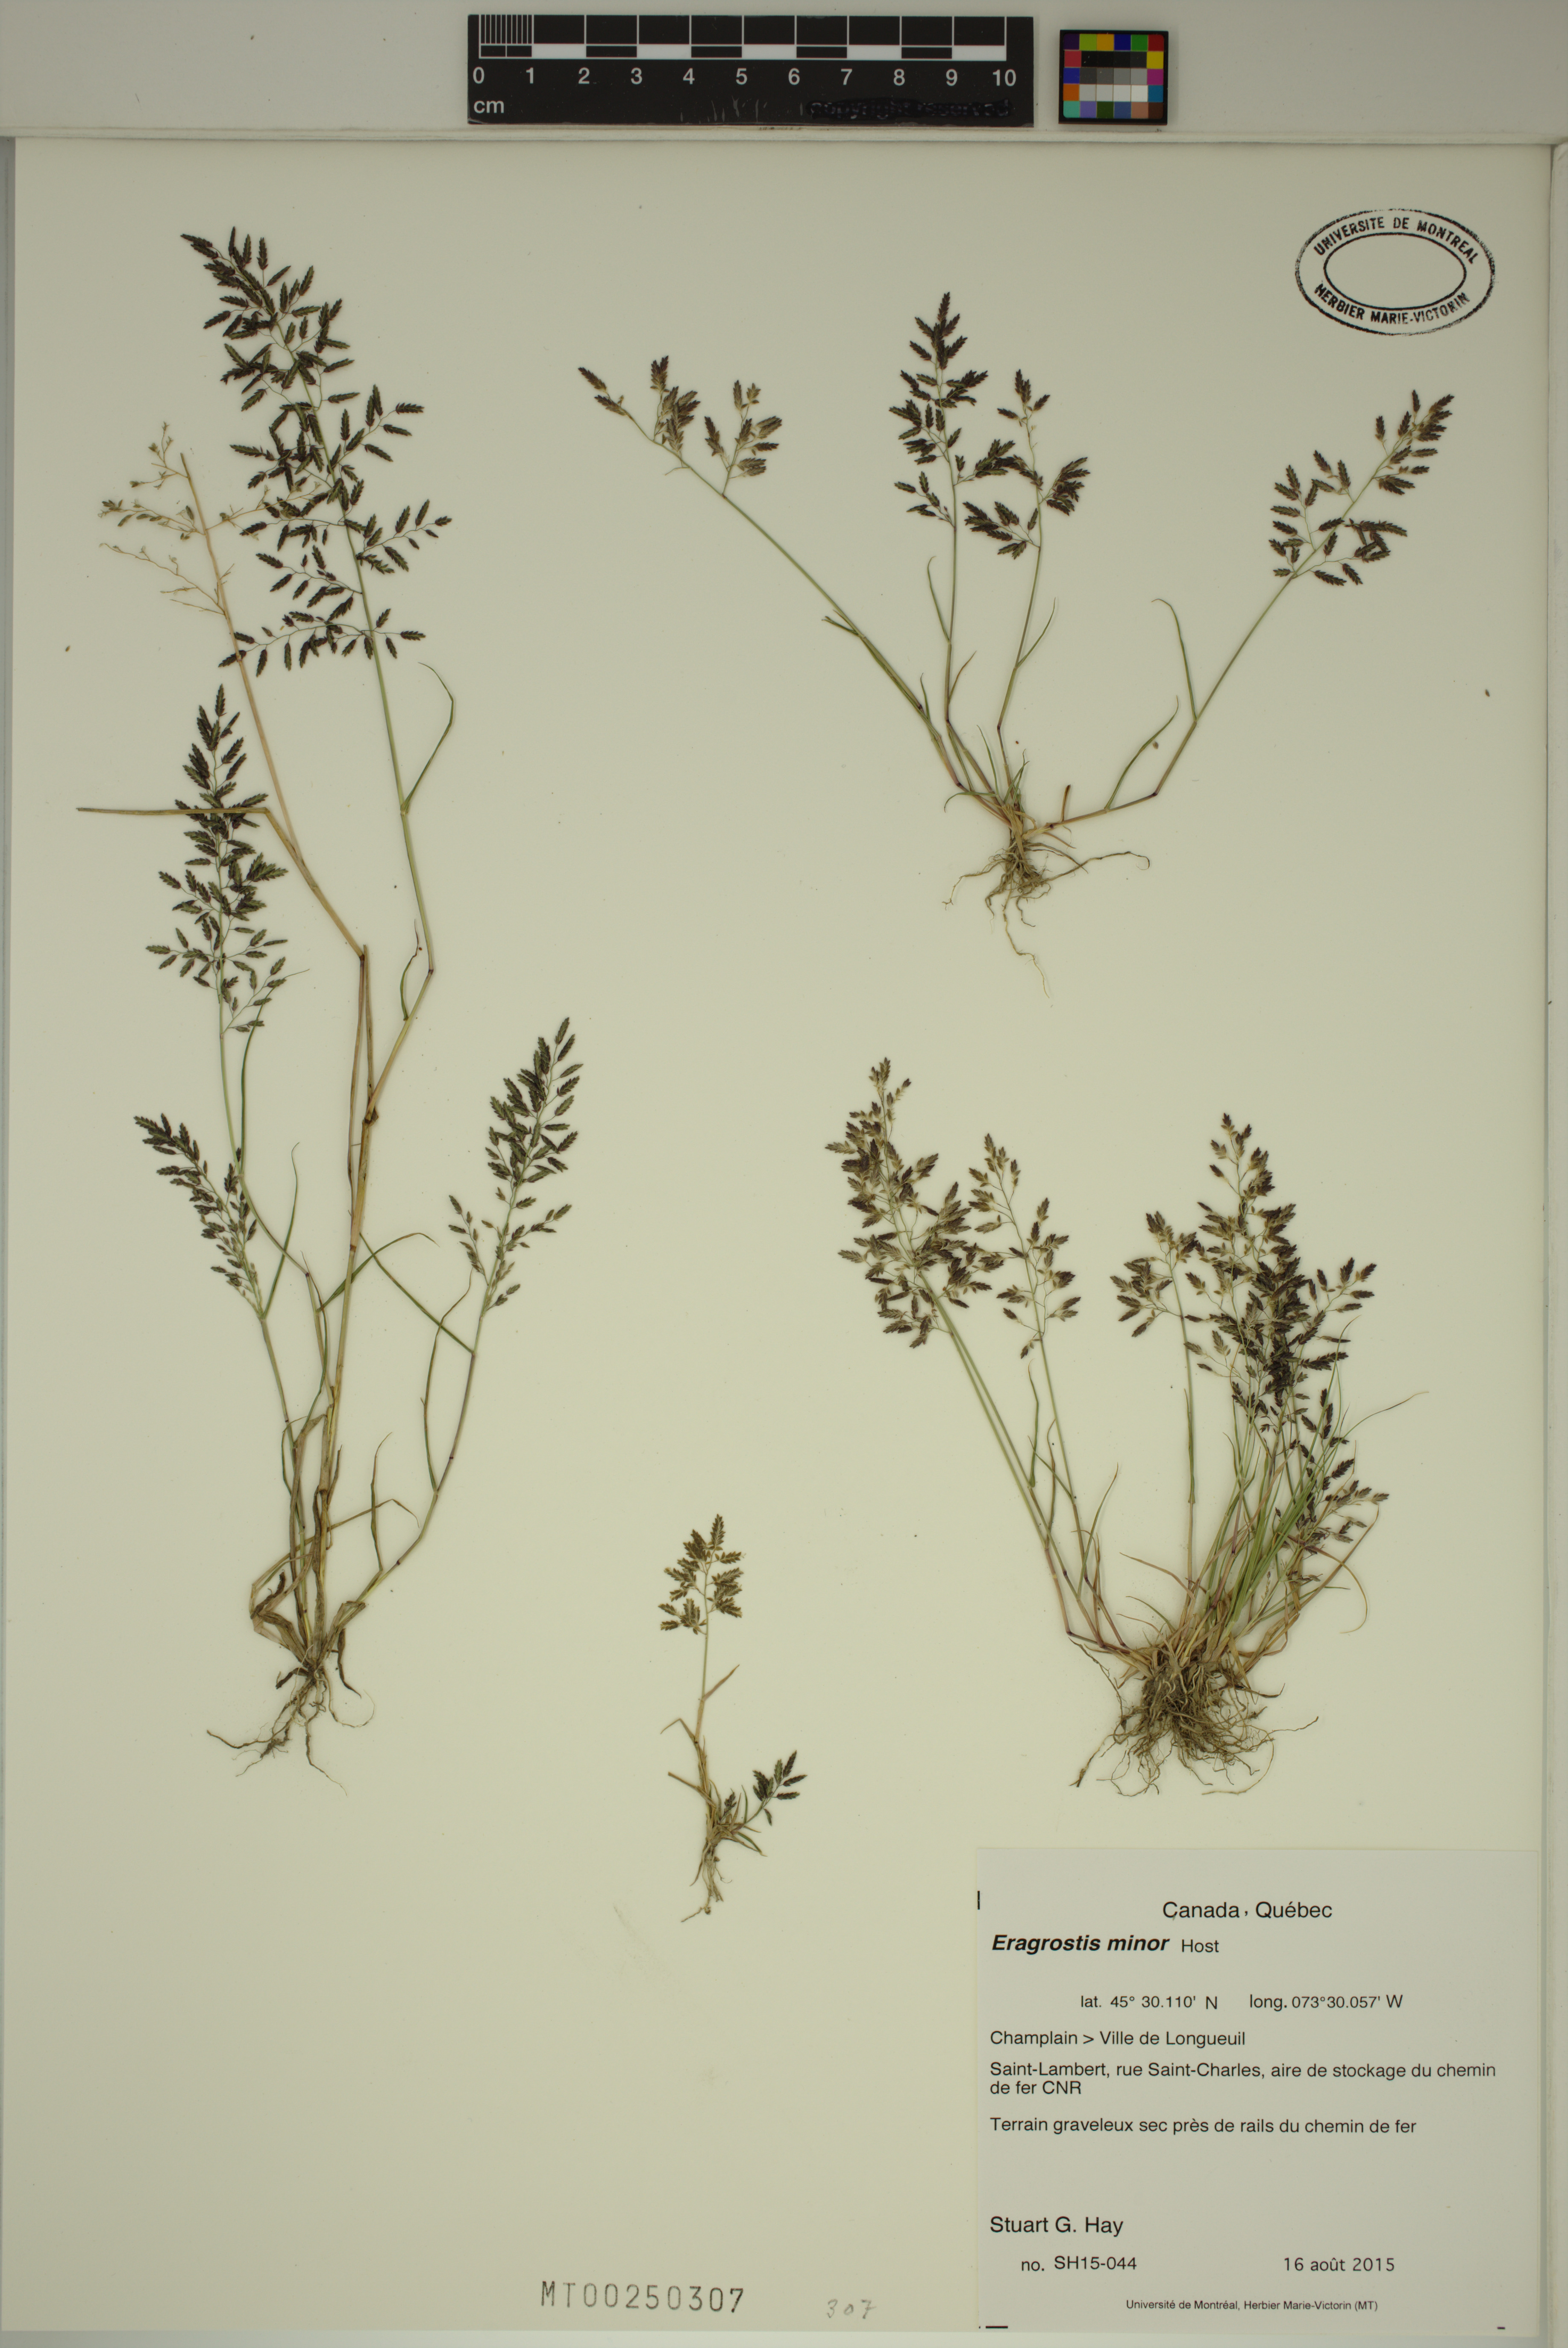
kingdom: Plantae
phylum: Tracheophyta
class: Liliopsida
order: Poales
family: Poaceae
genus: Eragrostis
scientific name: Eragrostis minor
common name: Small love-grass
